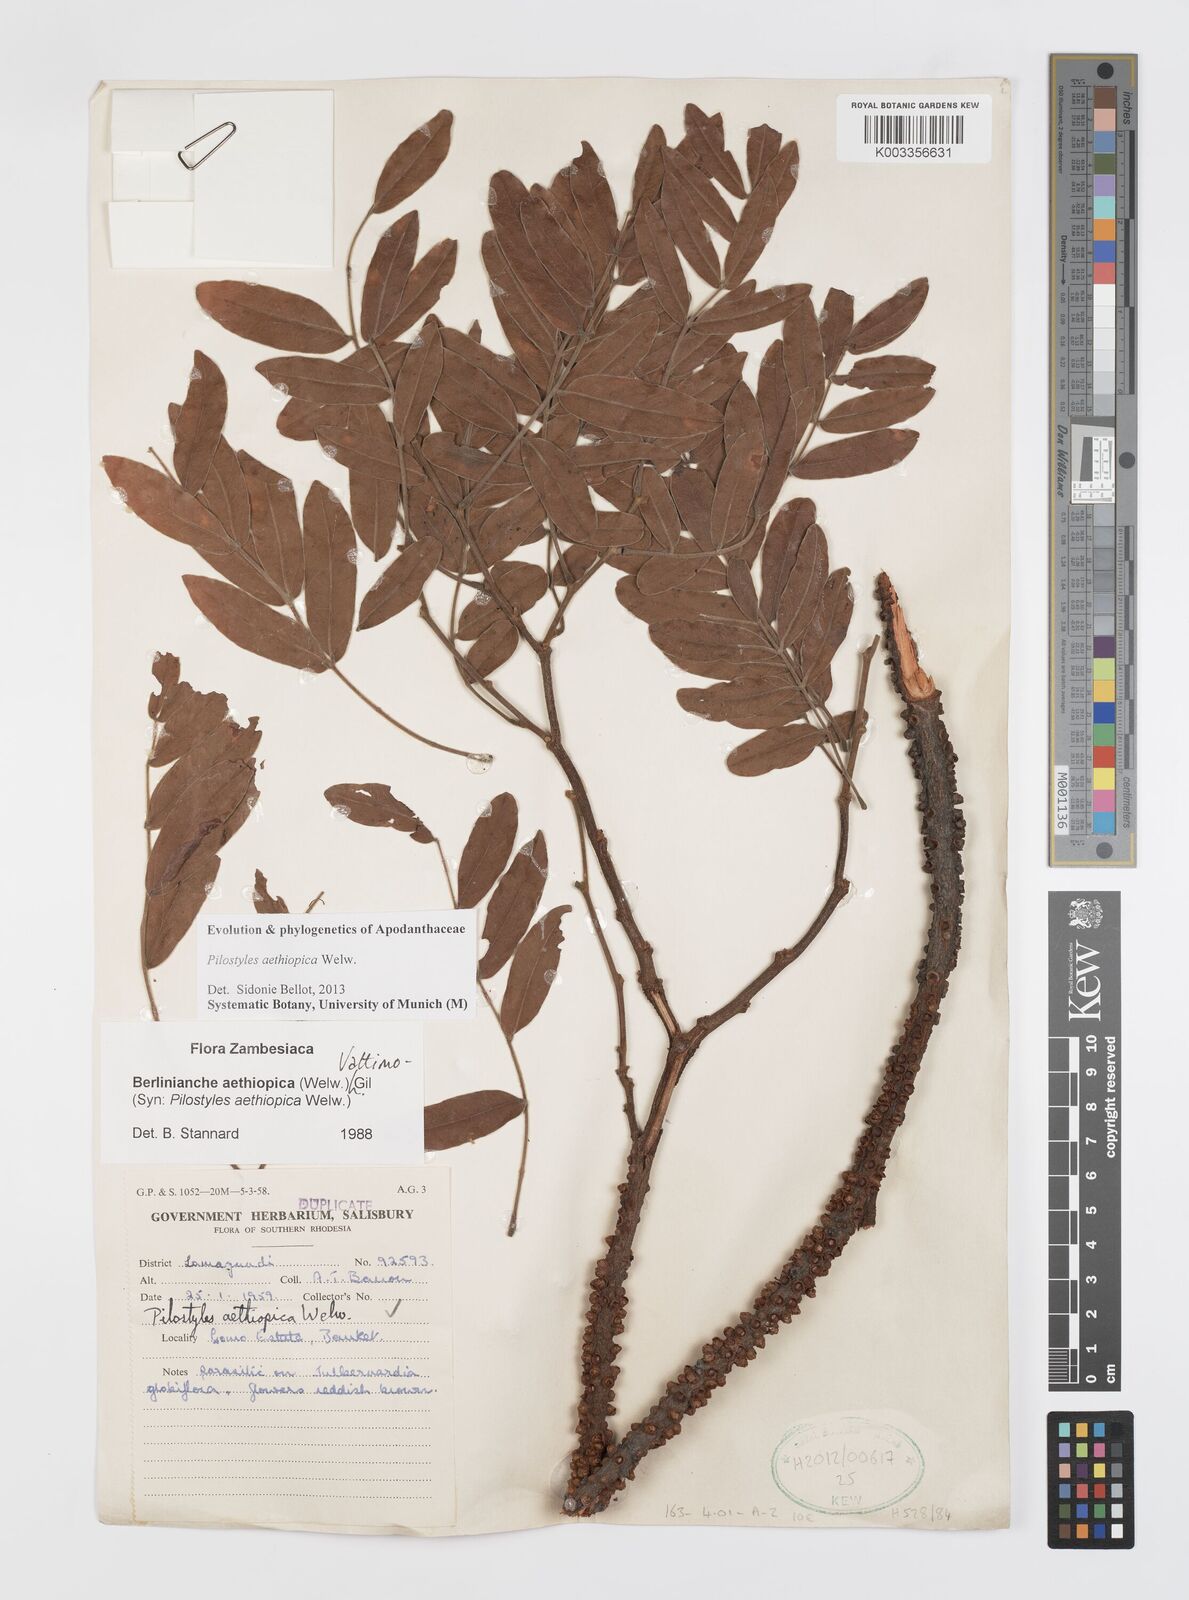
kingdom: Plantae
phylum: Tracheophyta
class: Magnoliopsida
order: Cucurbitales
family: Apodanthaceae
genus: Pilostyles
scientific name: Pilostyles aethiopica
